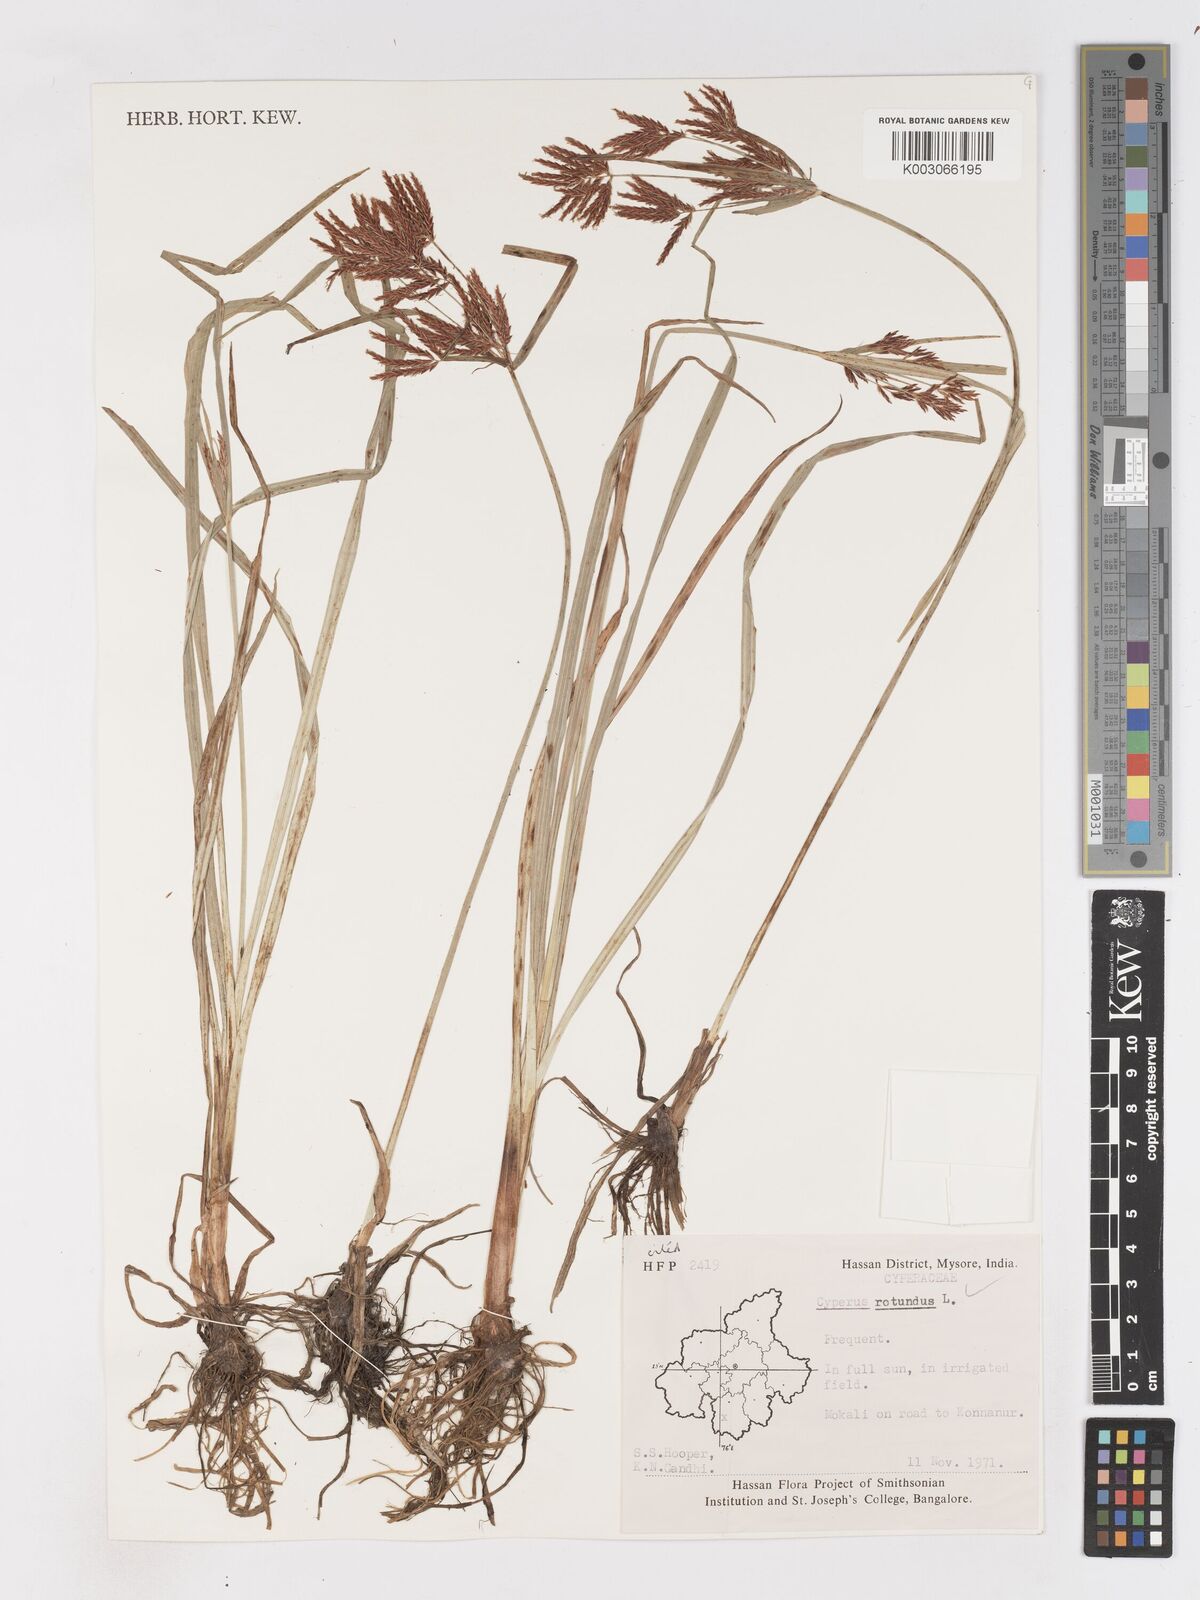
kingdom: Plantae
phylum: Tracheophyta
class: Liliopsida
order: Poales
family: Cyperaceae
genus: Cyperus
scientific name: Cyperus bifax
